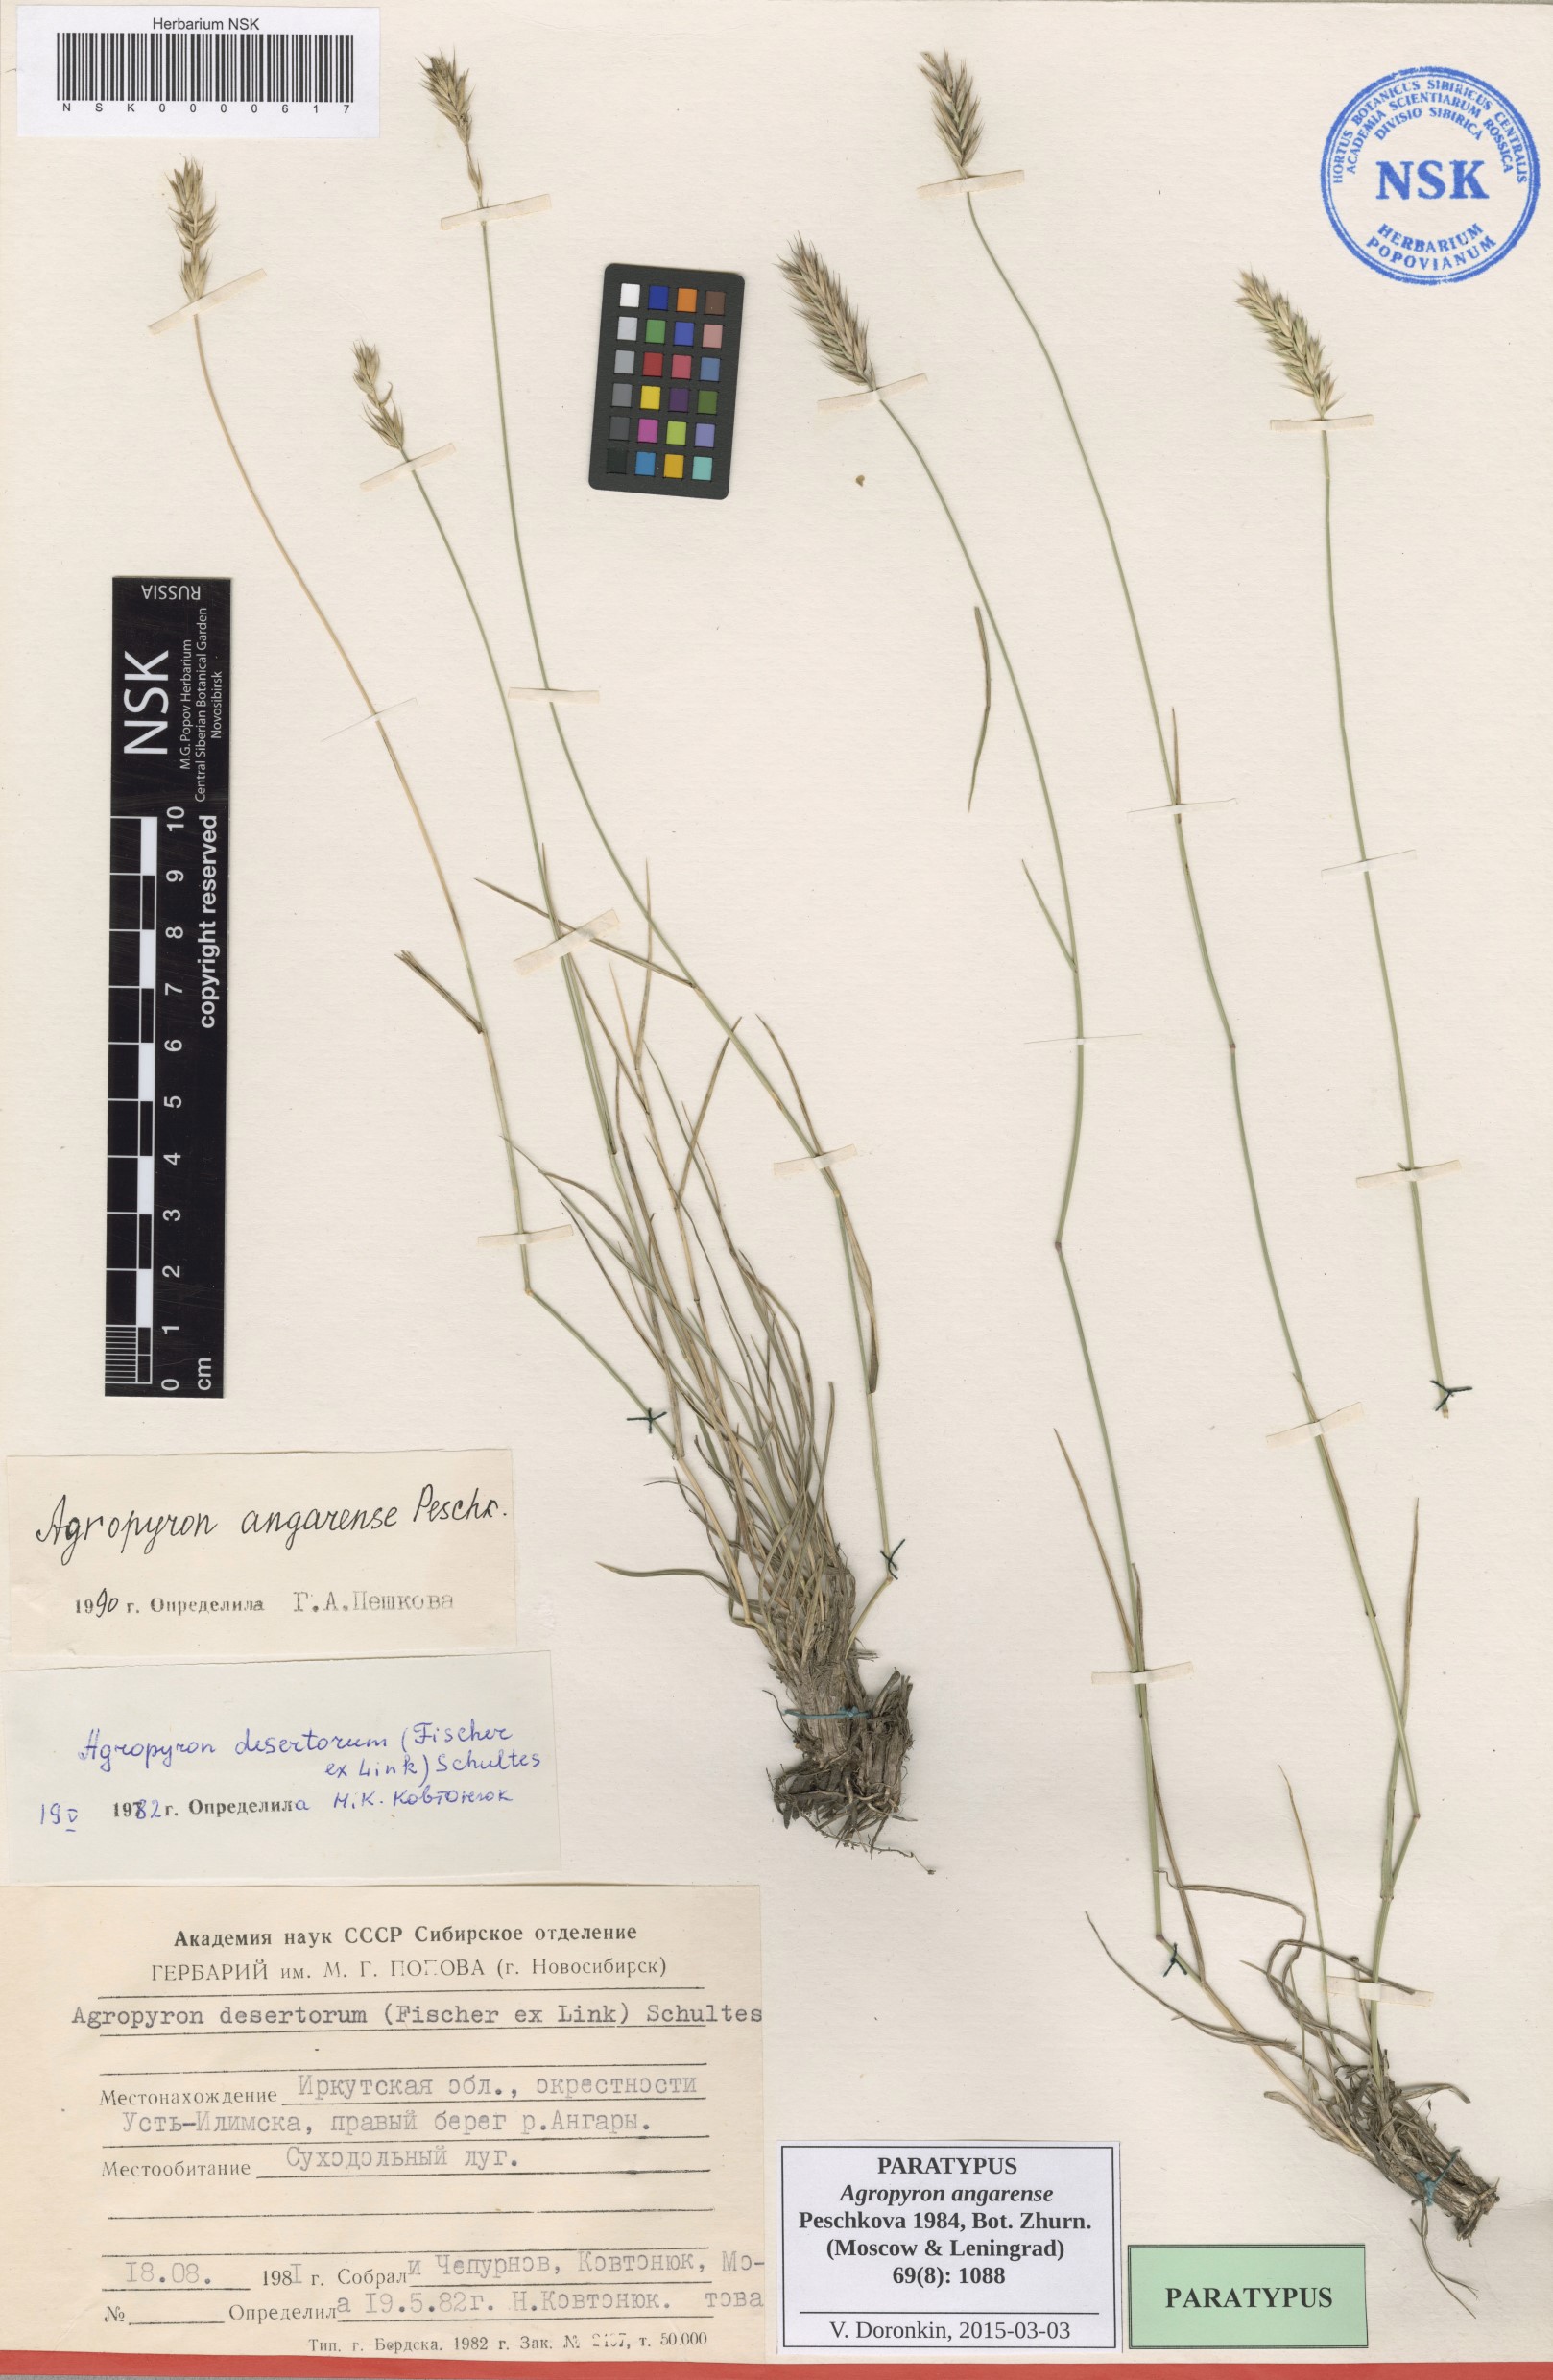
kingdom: Plantae
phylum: Tracheophyta
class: Liliopsida
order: Poales
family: Poaceae
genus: Agropyron
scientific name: Agropyron desertorum
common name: Desert wheatgrass
